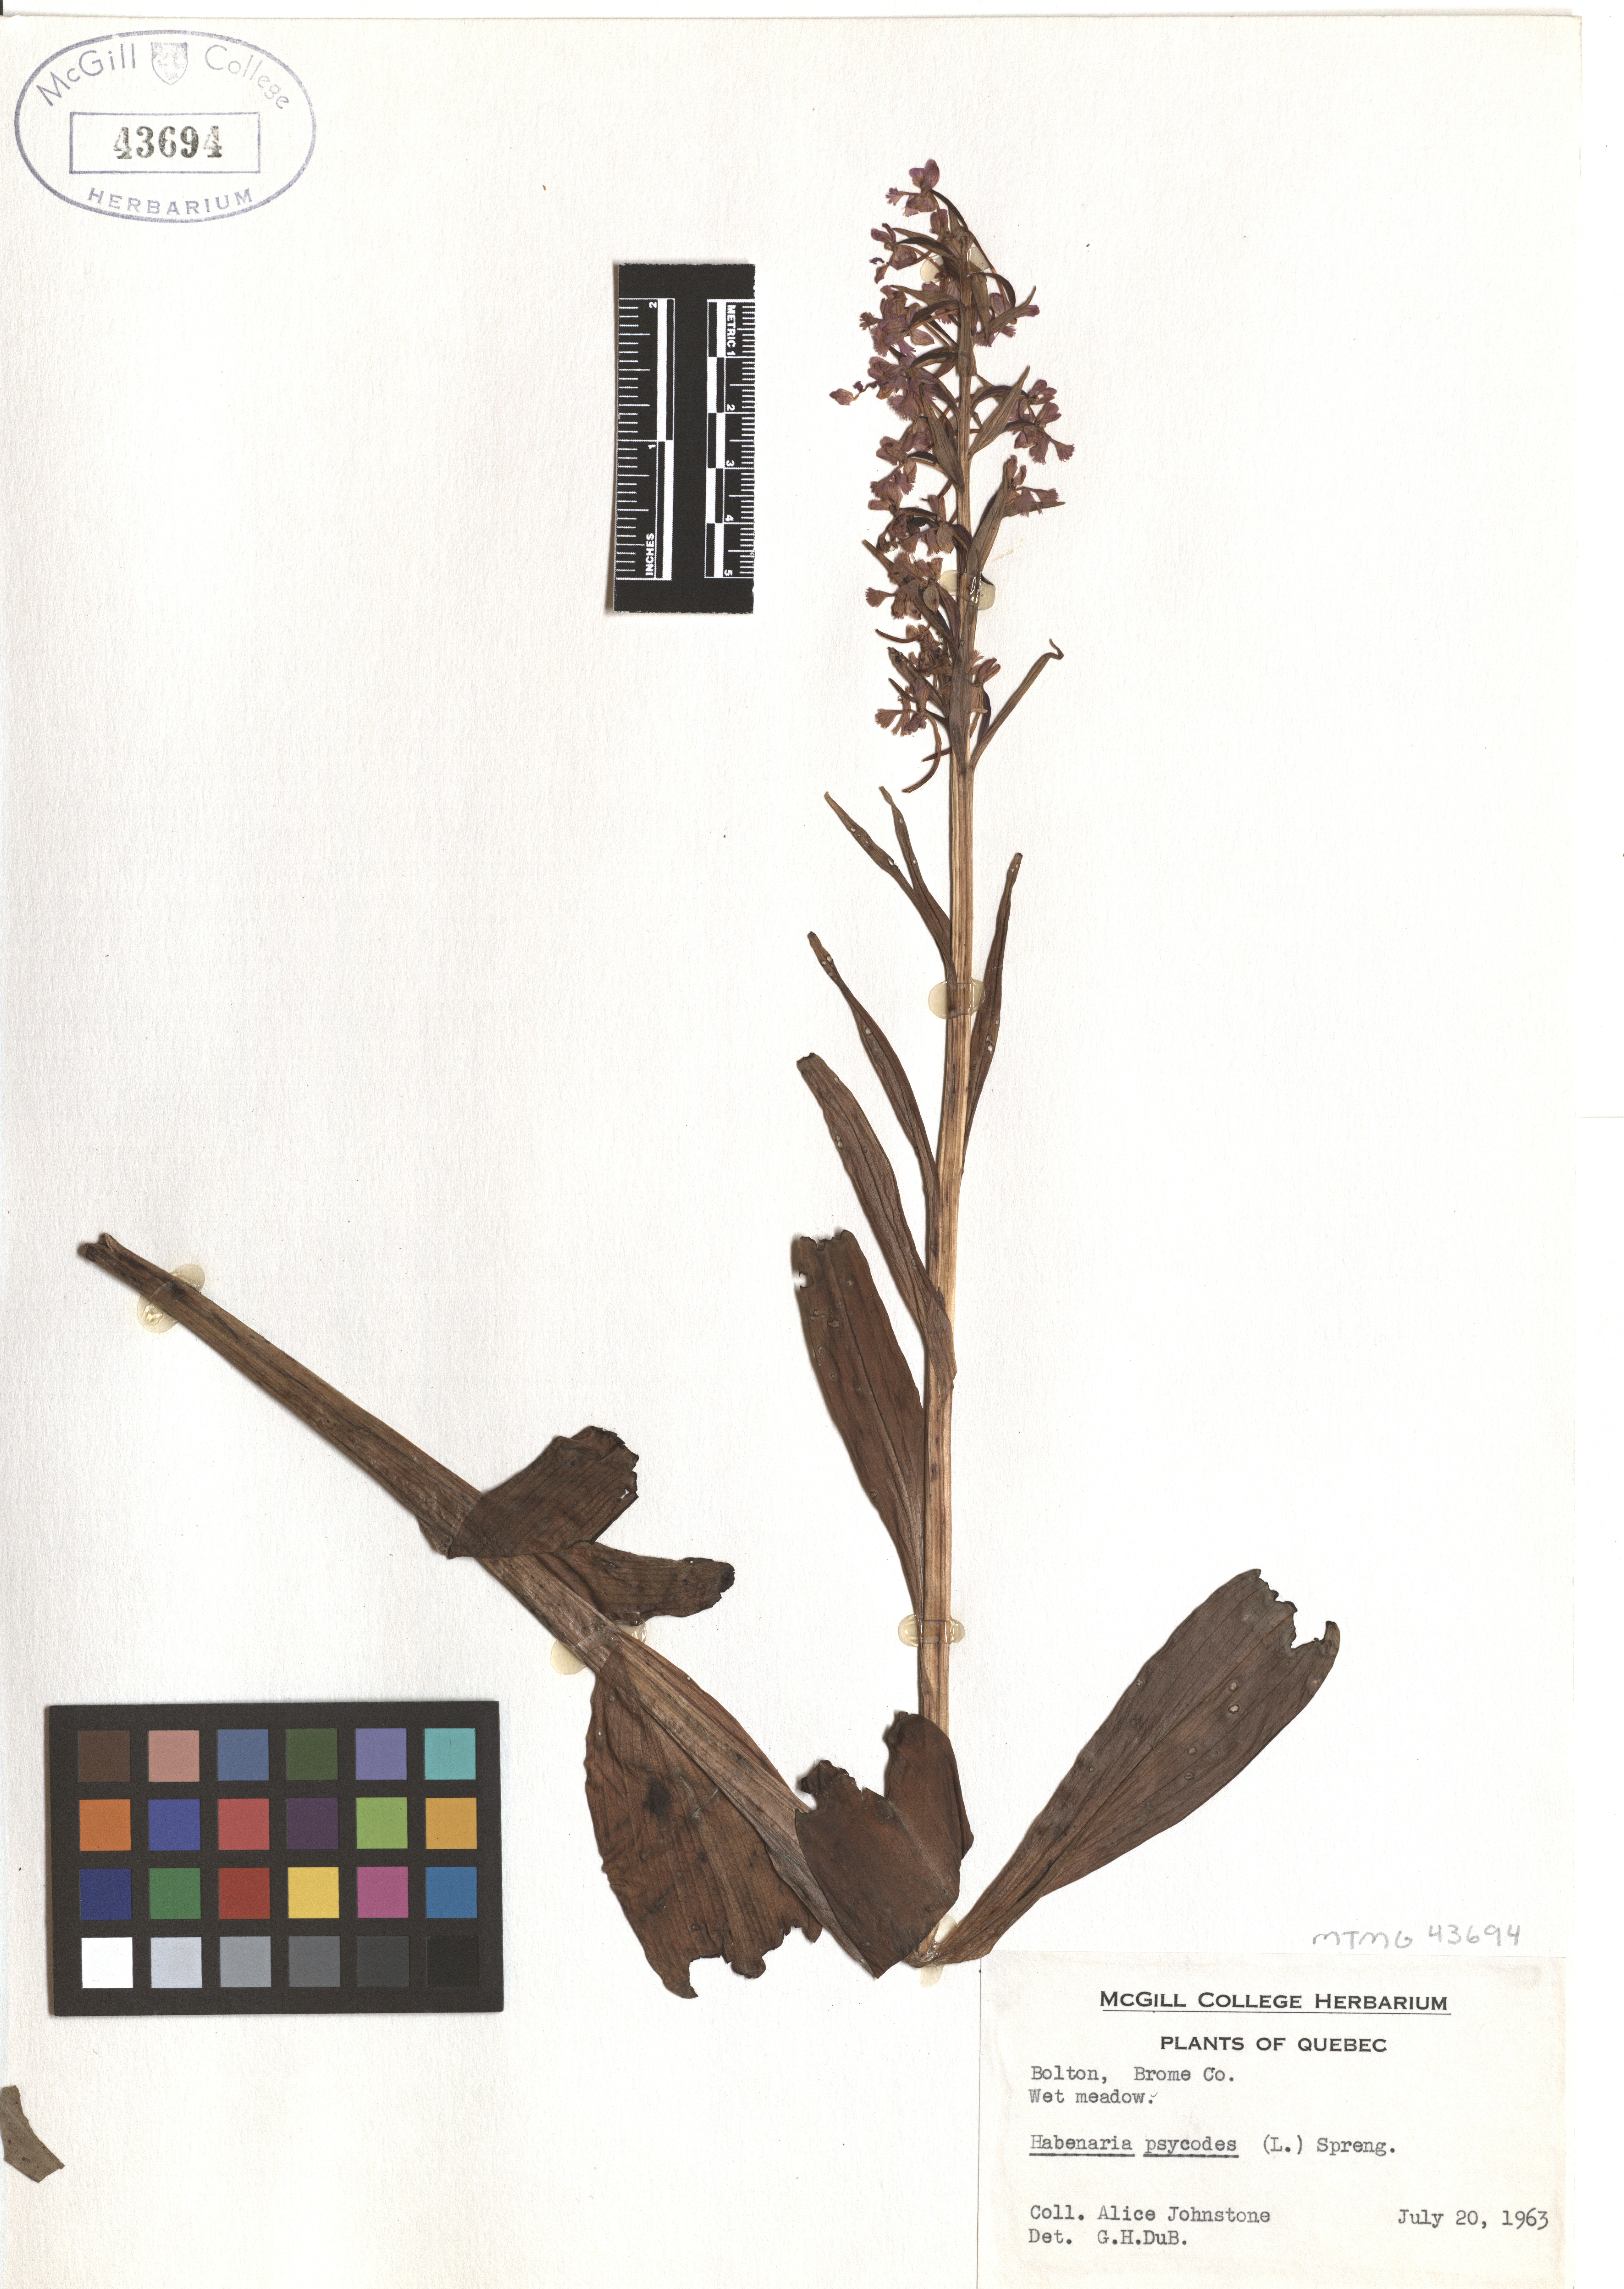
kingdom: Plantae
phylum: Tracheophyta
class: Liliopsida
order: Asparagales
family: Orchidaceae
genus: Platanthera
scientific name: Platanthera psycodes
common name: Lesser purple fringed orchid
